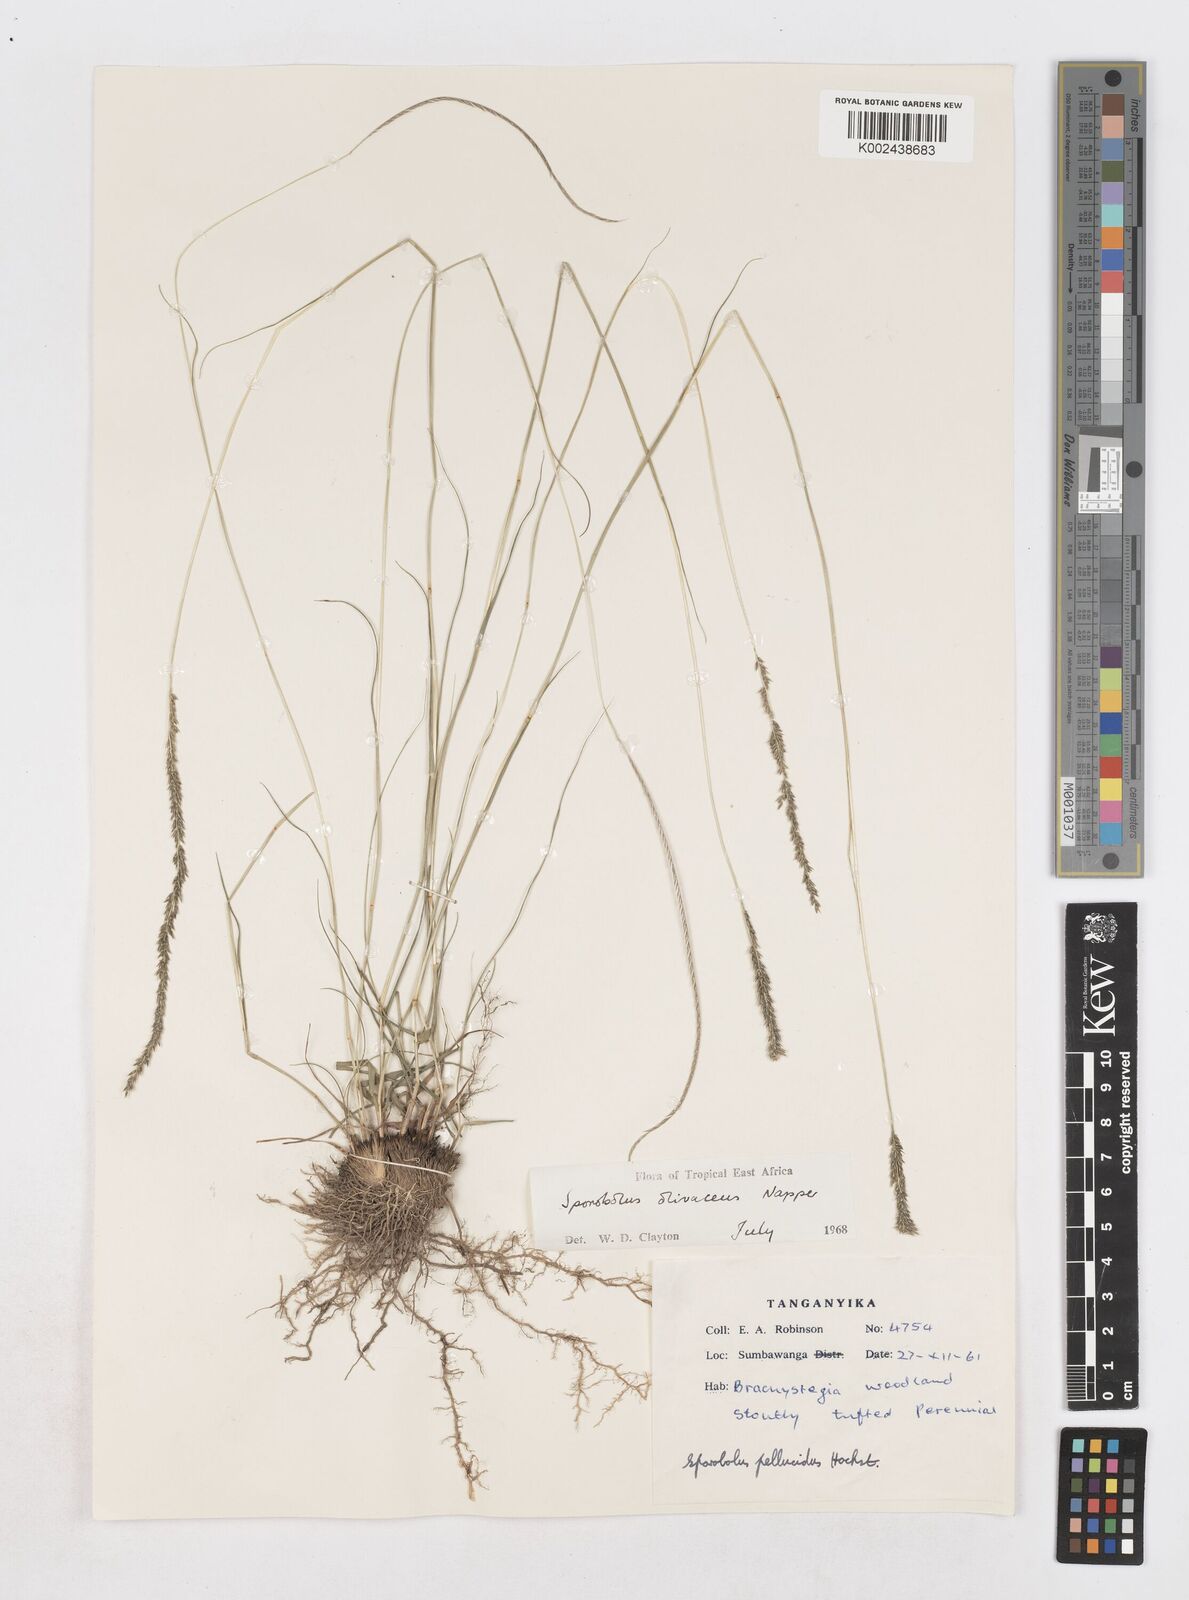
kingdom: Plantae
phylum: Tracheophyta
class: Liliopsida
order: Poales
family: Poaceae
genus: Sporobolus
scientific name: Sporobolus olivaceus
